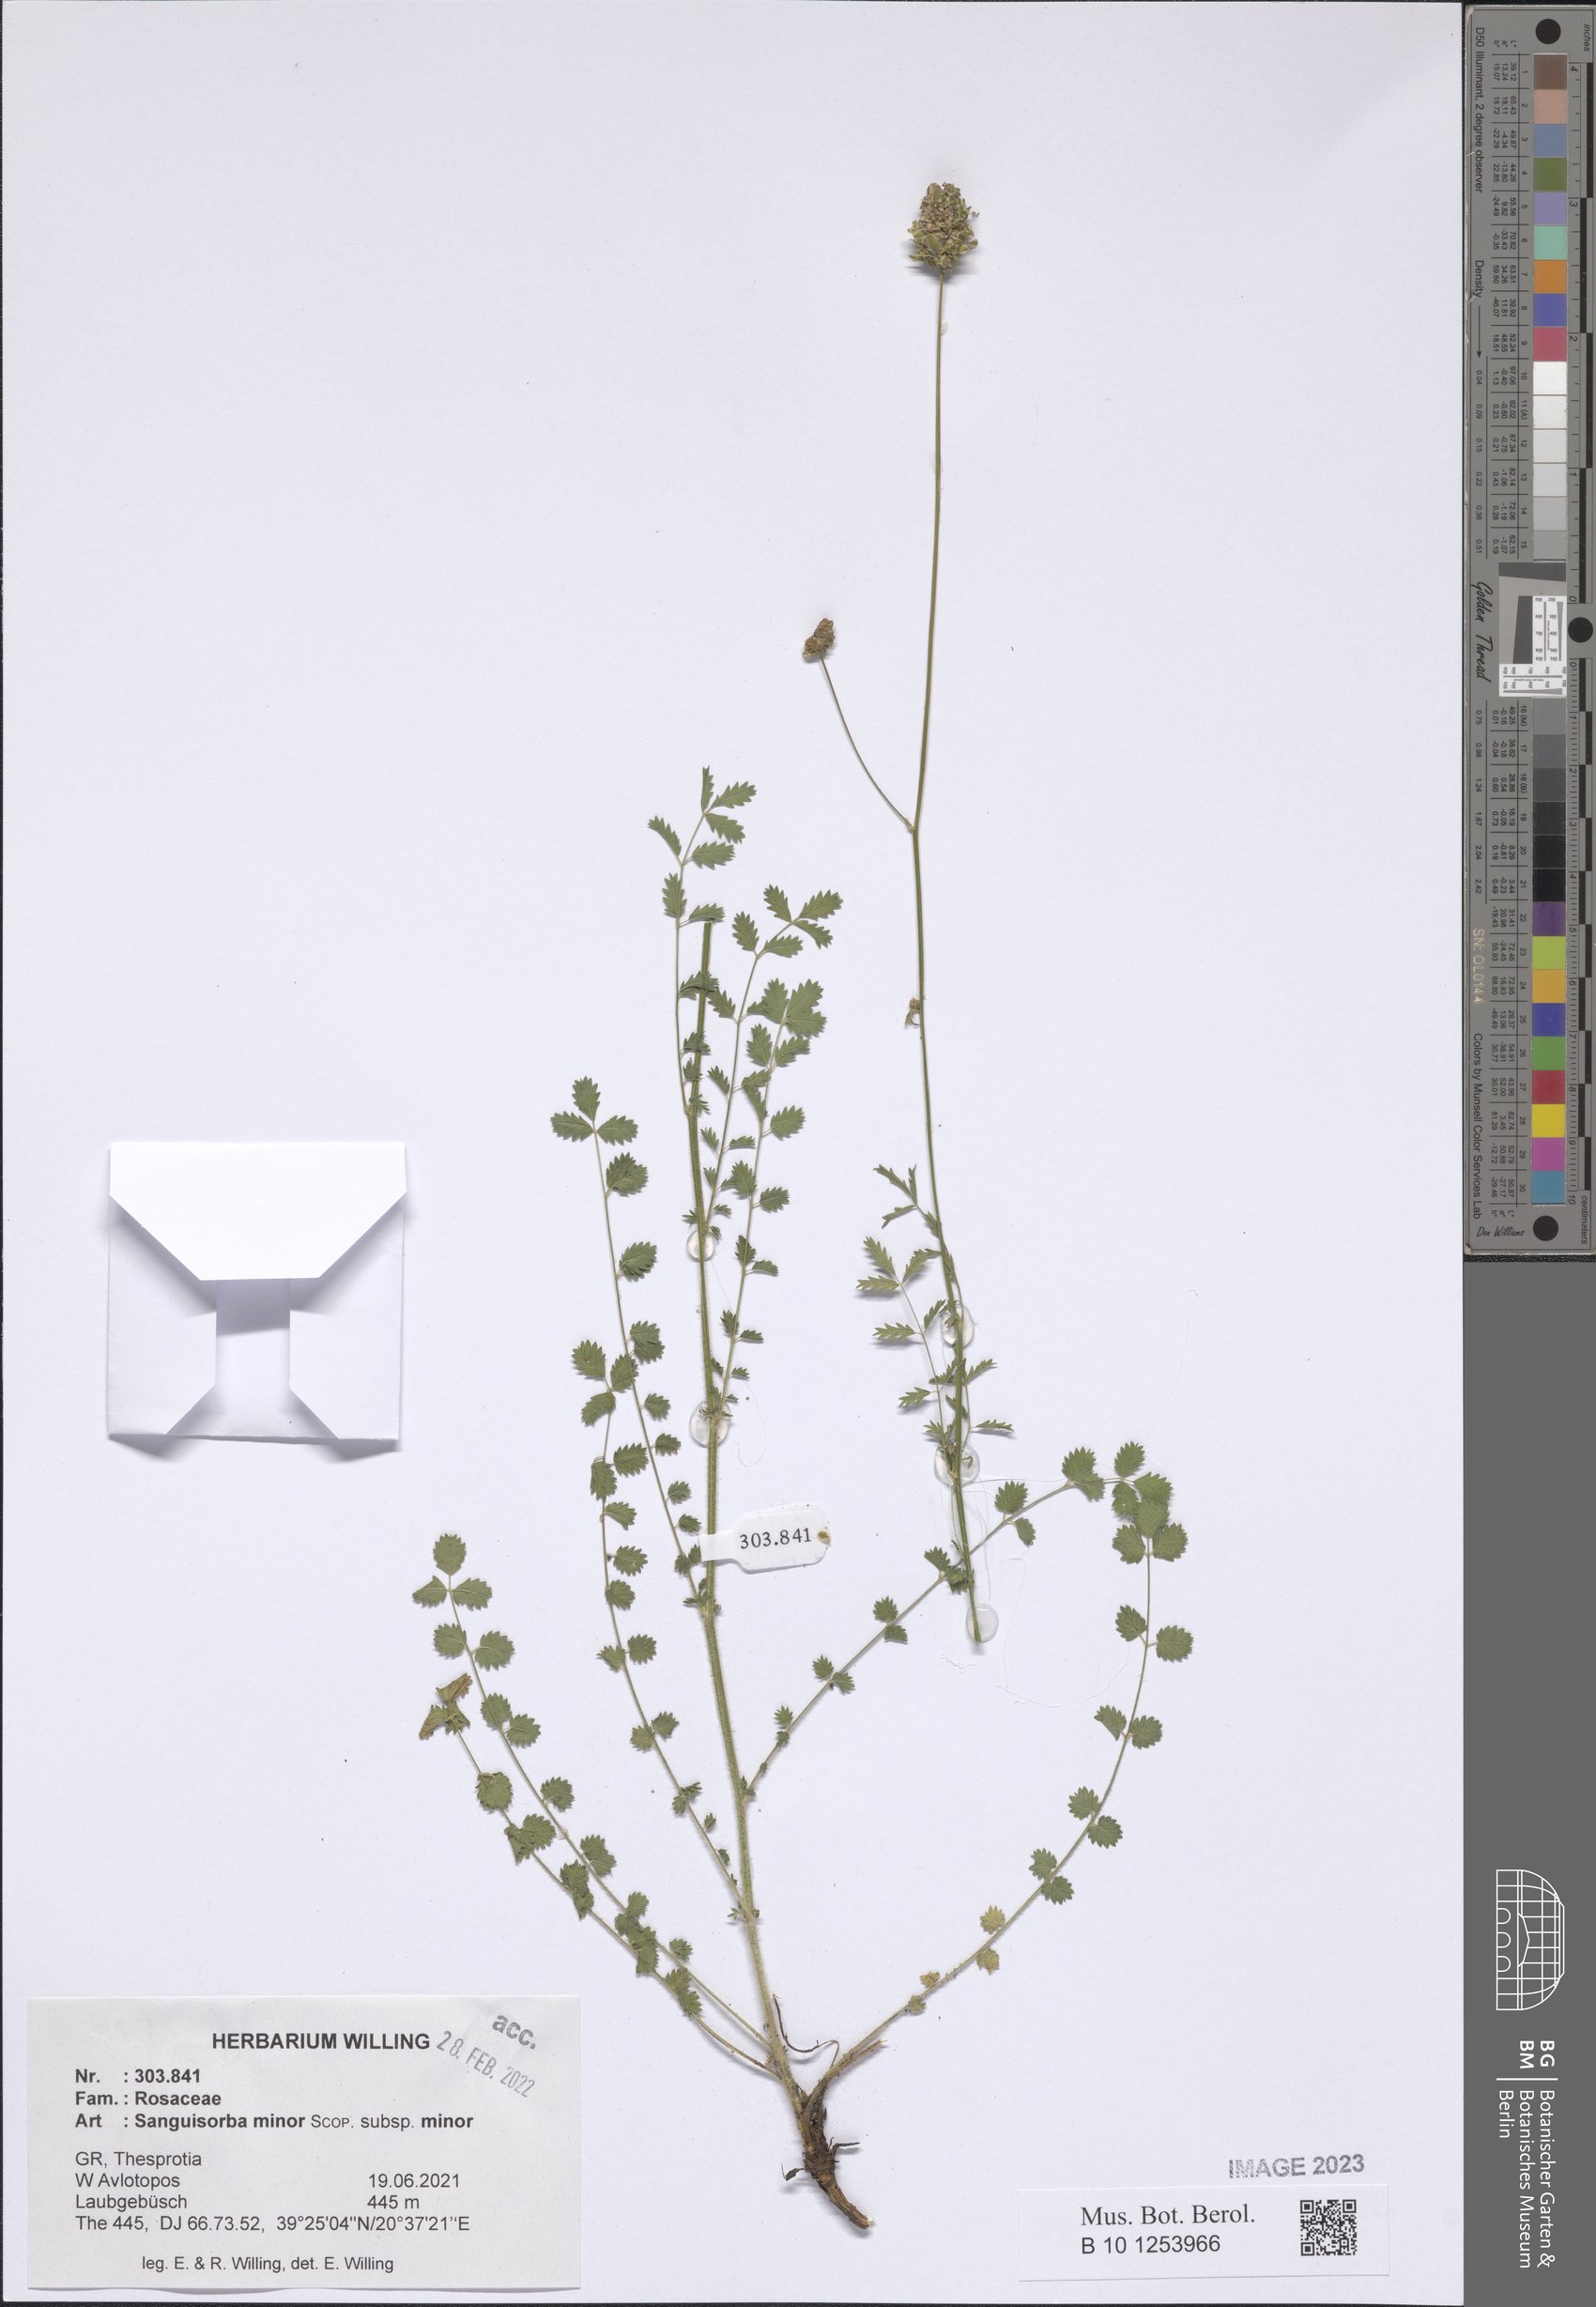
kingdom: Plantae
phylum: Tracheophyta
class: Magnoliopsida
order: Rosales
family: Rosaceae
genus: Poterium
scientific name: Poterium sanguisorba
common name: Salad burnet
